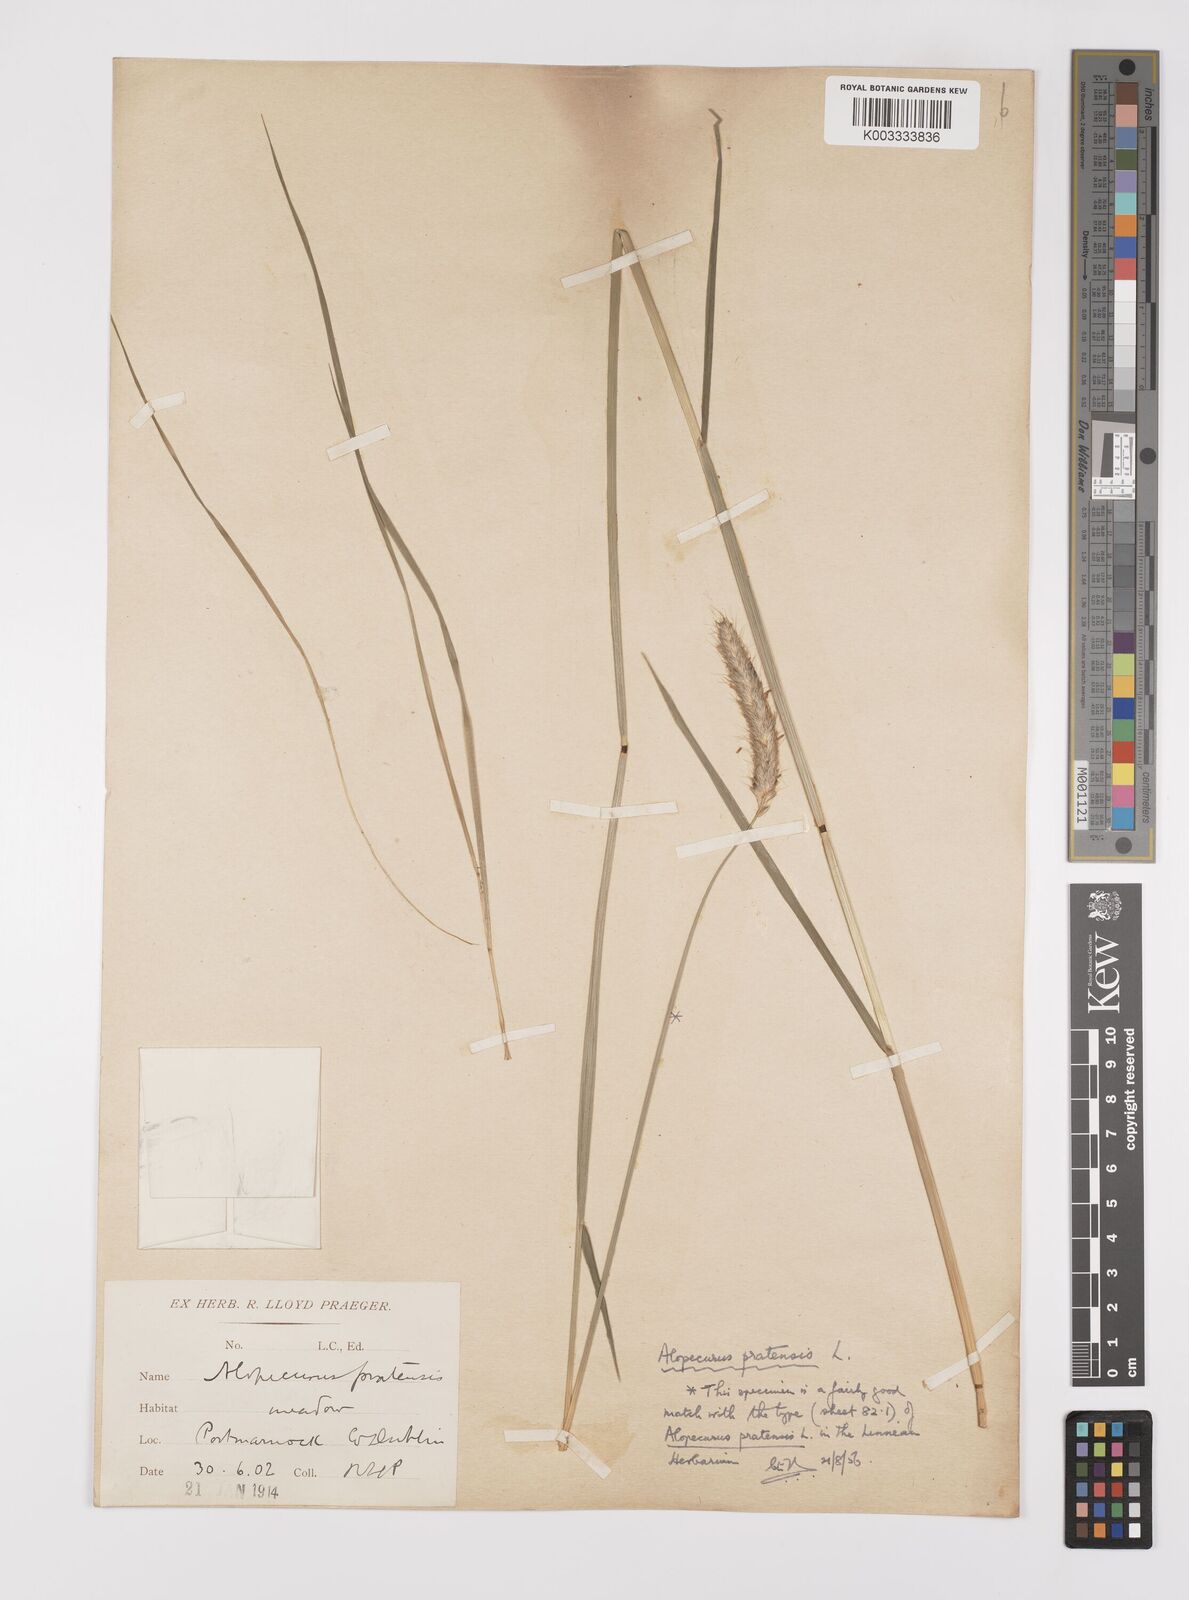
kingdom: Plantae
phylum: Tracheophyta
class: Liliopsida
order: Poales
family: Poaceae
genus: Alopecurus
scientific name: Alopecurus pratensis
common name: Meadow foxtail
